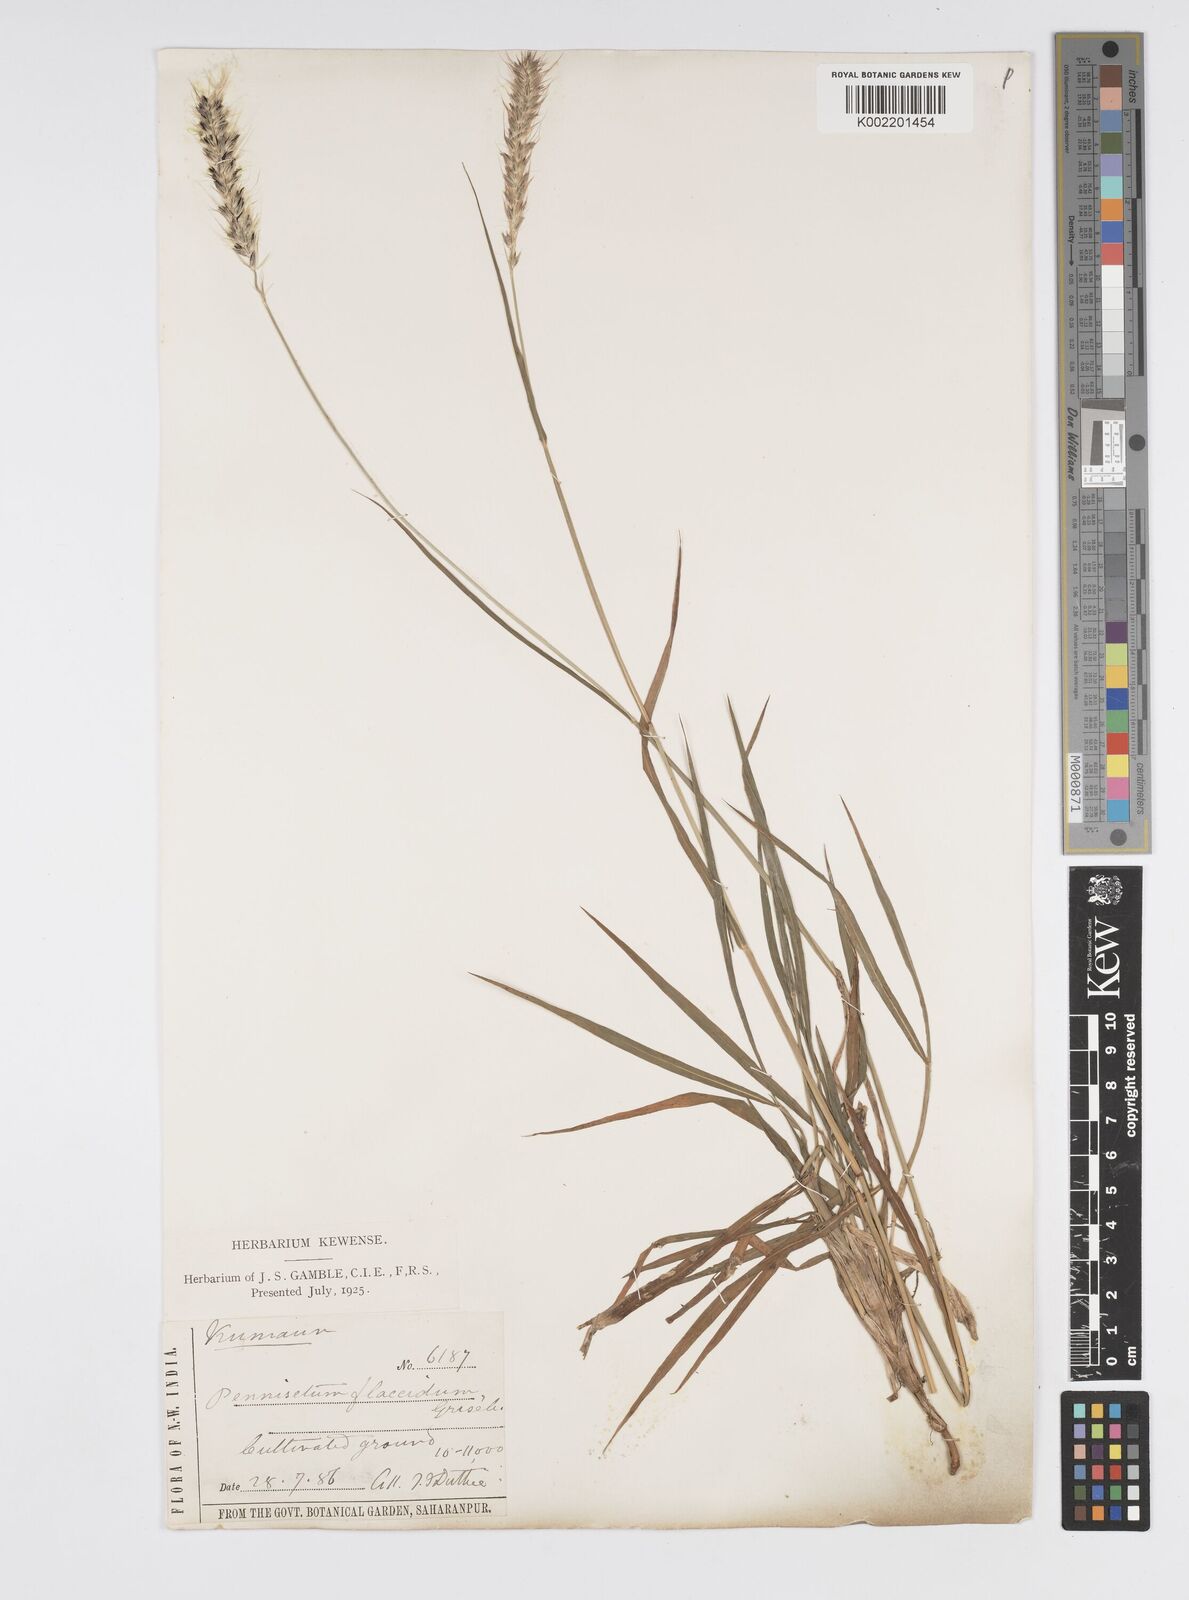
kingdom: Plantae
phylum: Tracheophyta
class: Liliopsida
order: Poales
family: Poaceae
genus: Cenchrus
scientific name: Cenchrus flaccidus
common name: Flaccid grass
